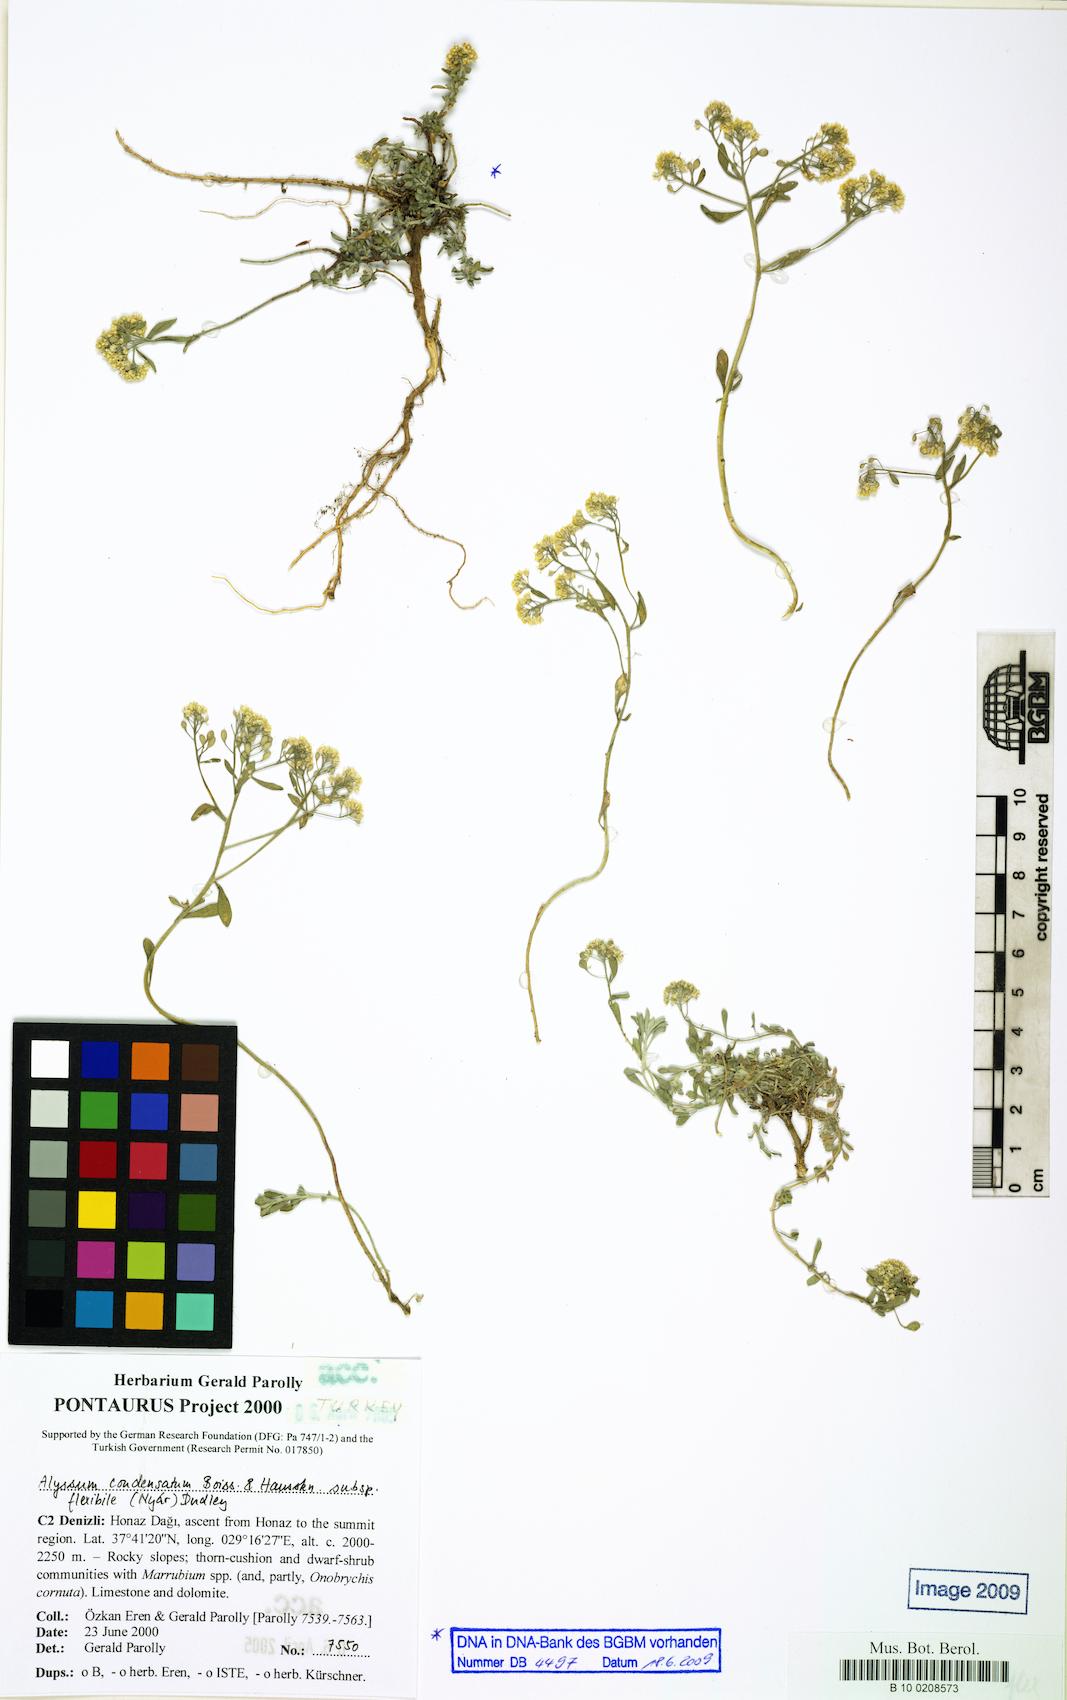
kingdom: Plantae
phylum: Tracheophyta
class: Magnoliopsida
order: Brassicales
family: Brassicaceae
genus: Odontarrhena
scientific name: Odontarrhena condensata
